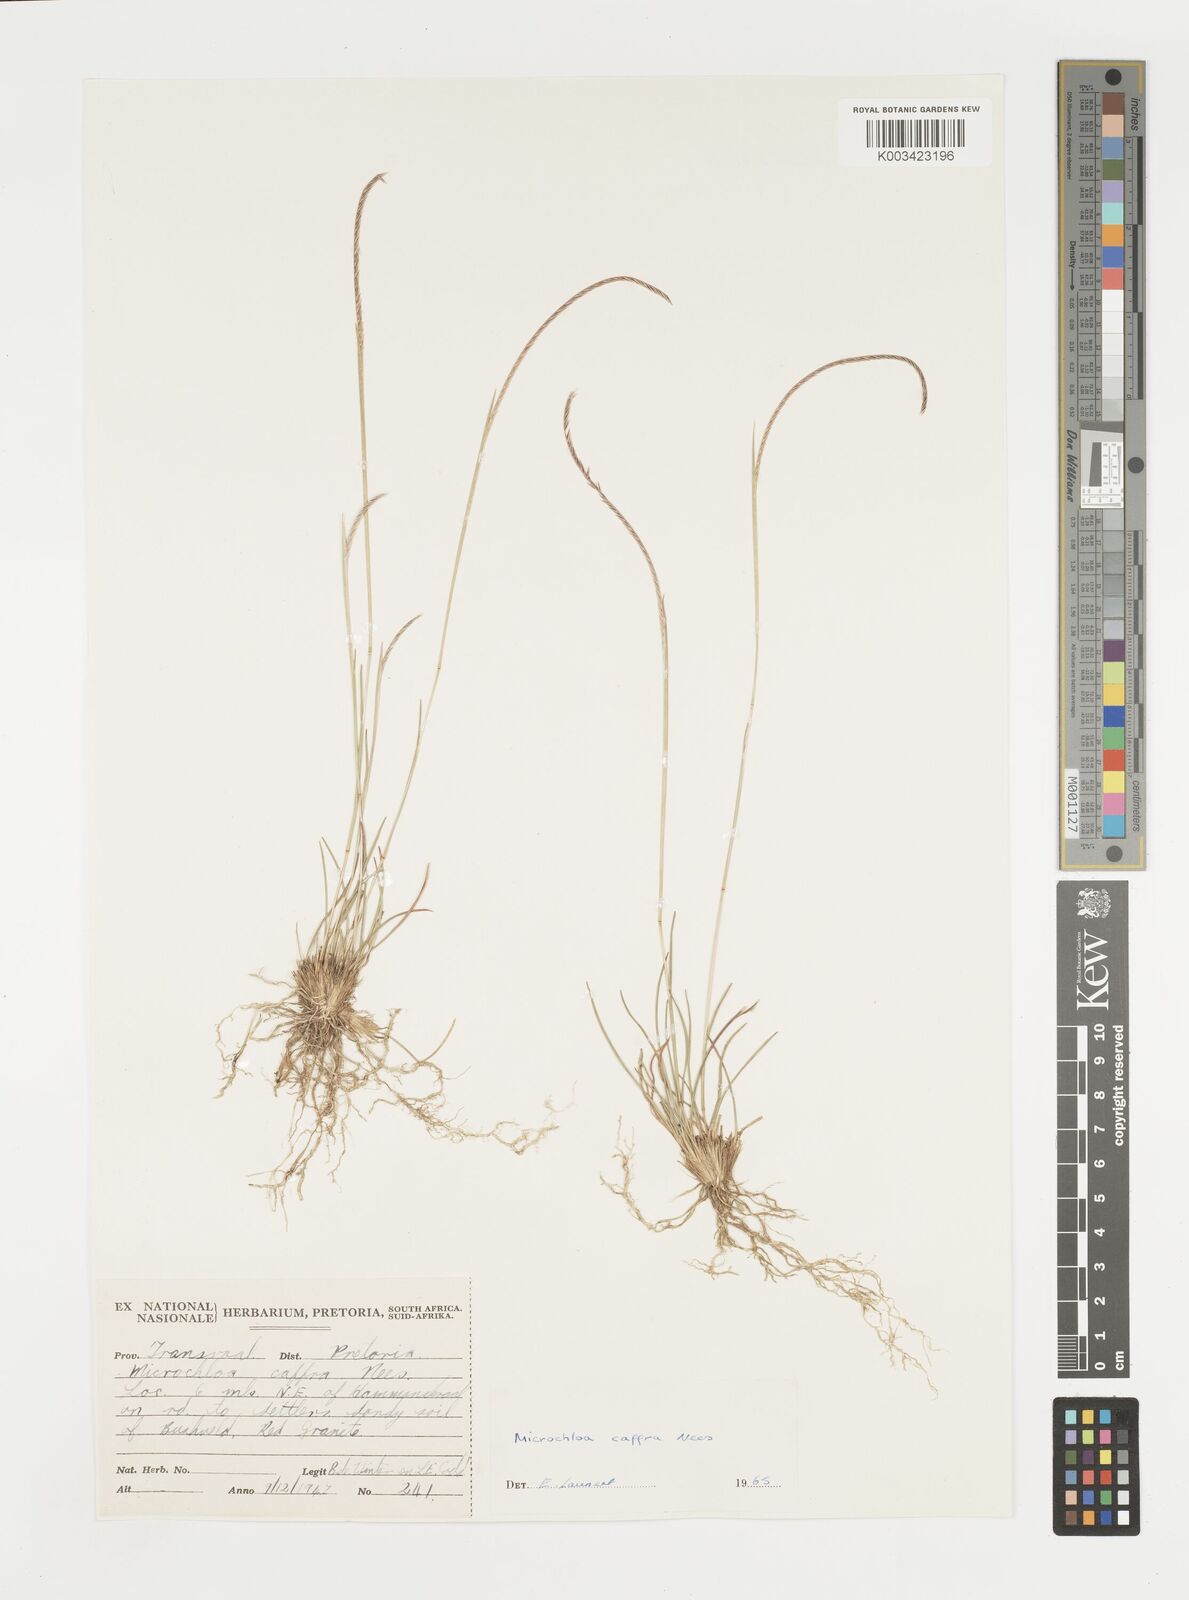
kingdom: Plantae
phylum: Tracheophyta
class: Liliopsida
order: Poales
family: Poaceae
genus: Microchloa
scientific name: Microchloa caffra
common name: Pincushion grass
